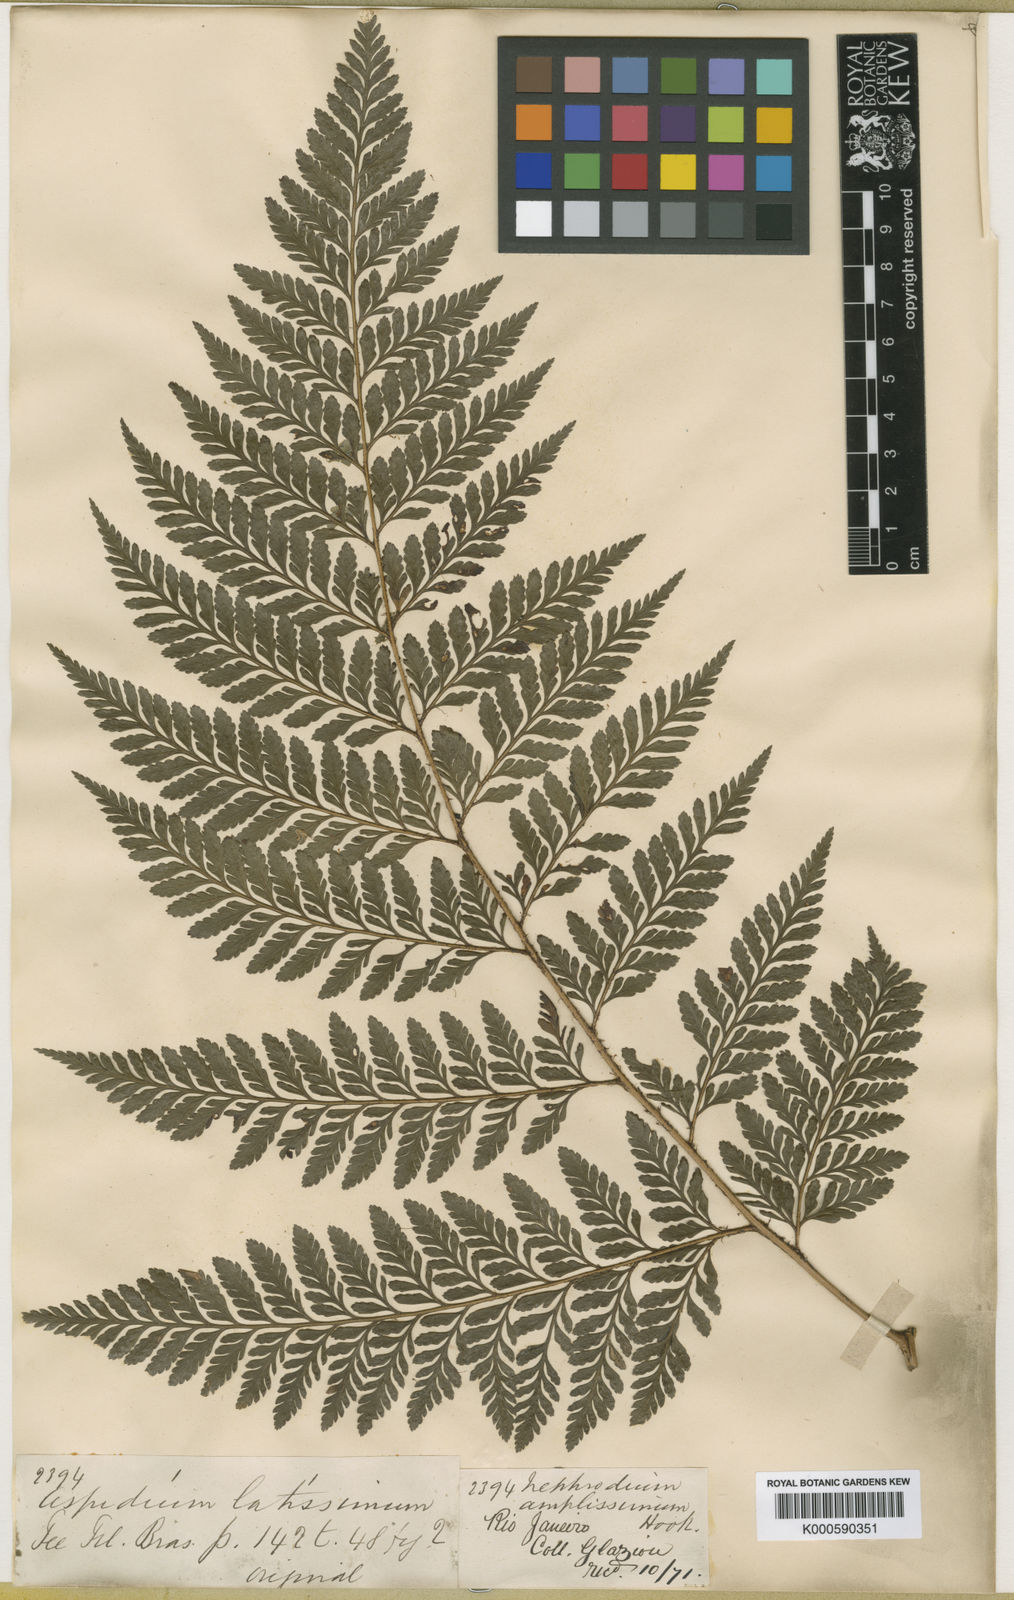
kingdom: Plantae
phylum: Tracheophyta
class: Polypodiopsida
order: Polypodiales
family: Dryopteridaceae
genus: Lastreopsis
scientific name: Lastreopsis amplissima
